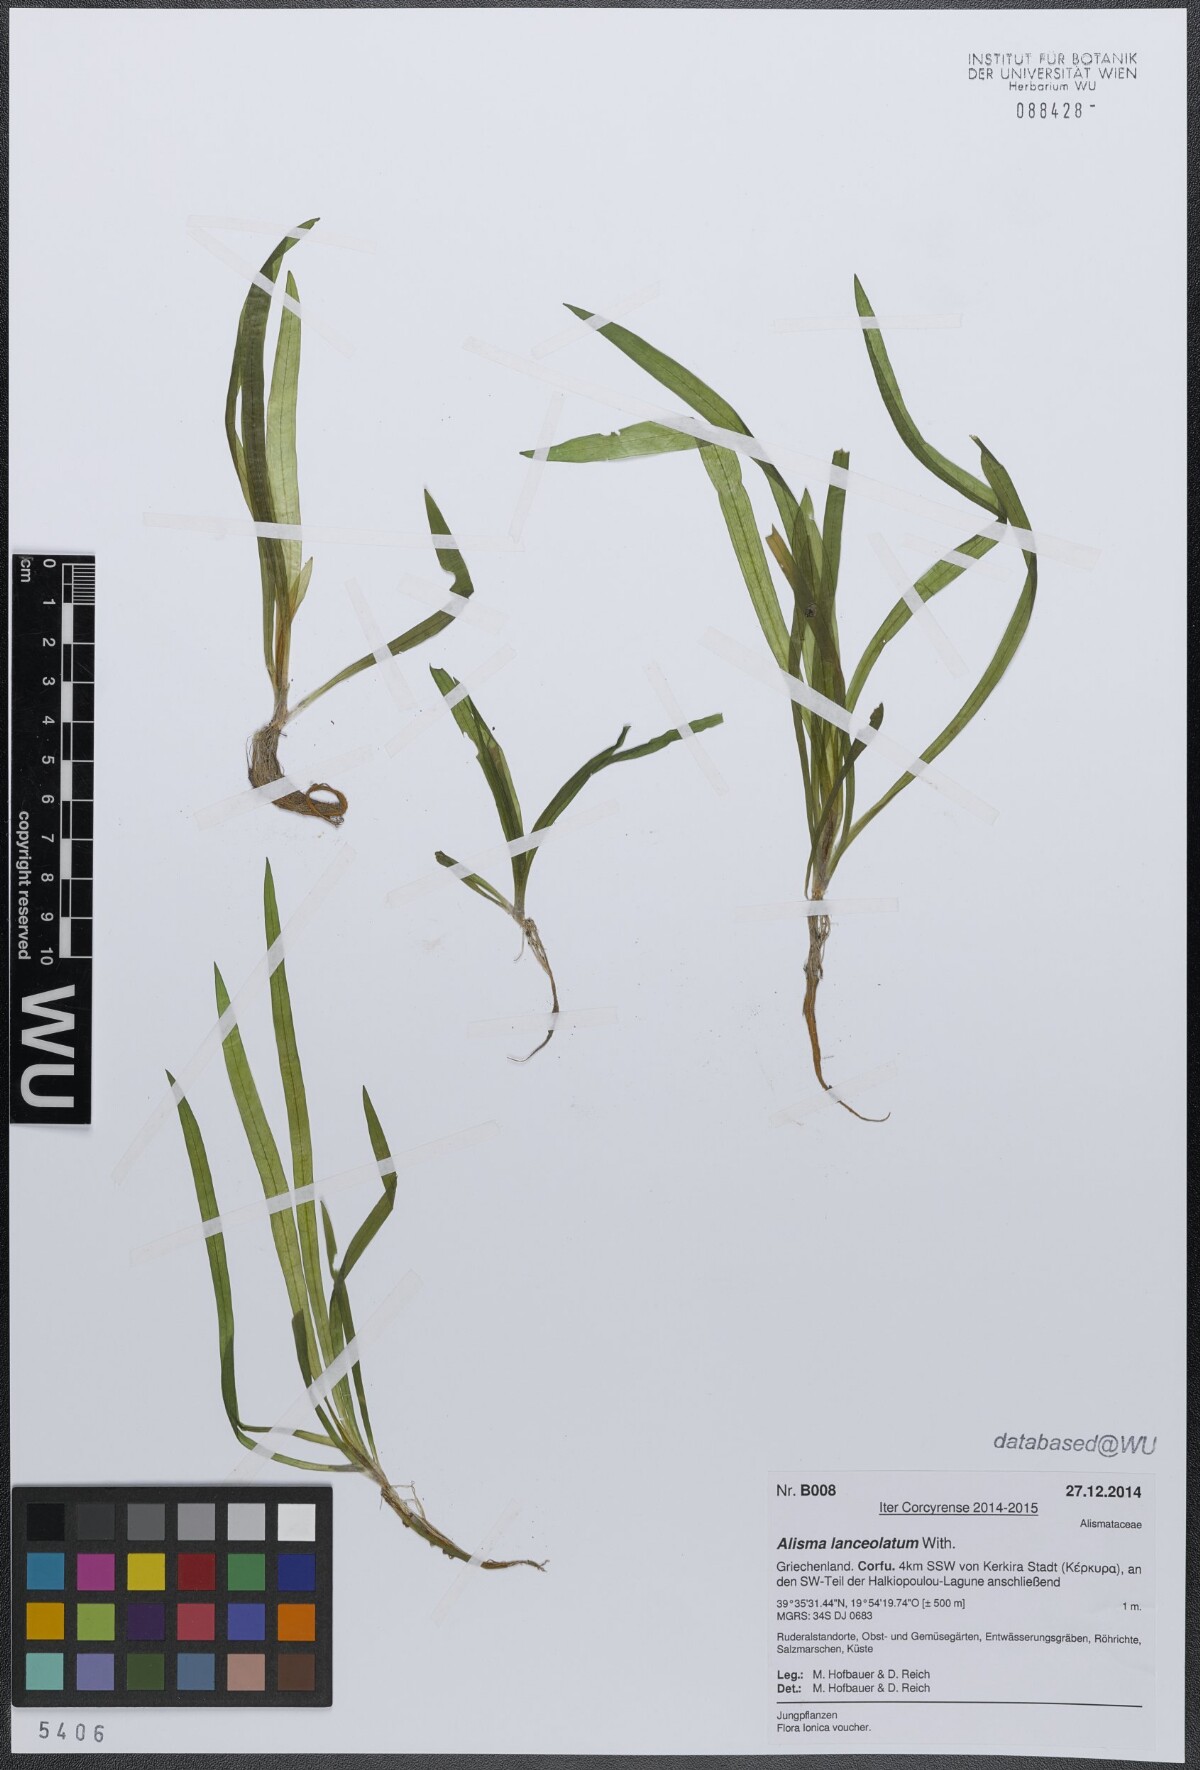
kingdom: Plantae
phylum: Tracheophyta
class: Liliopsida
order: Alismatales
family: Alismataceae
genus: Alisma
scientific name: Alisma lanceolatum
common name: Narrow-leaved water-plantain
